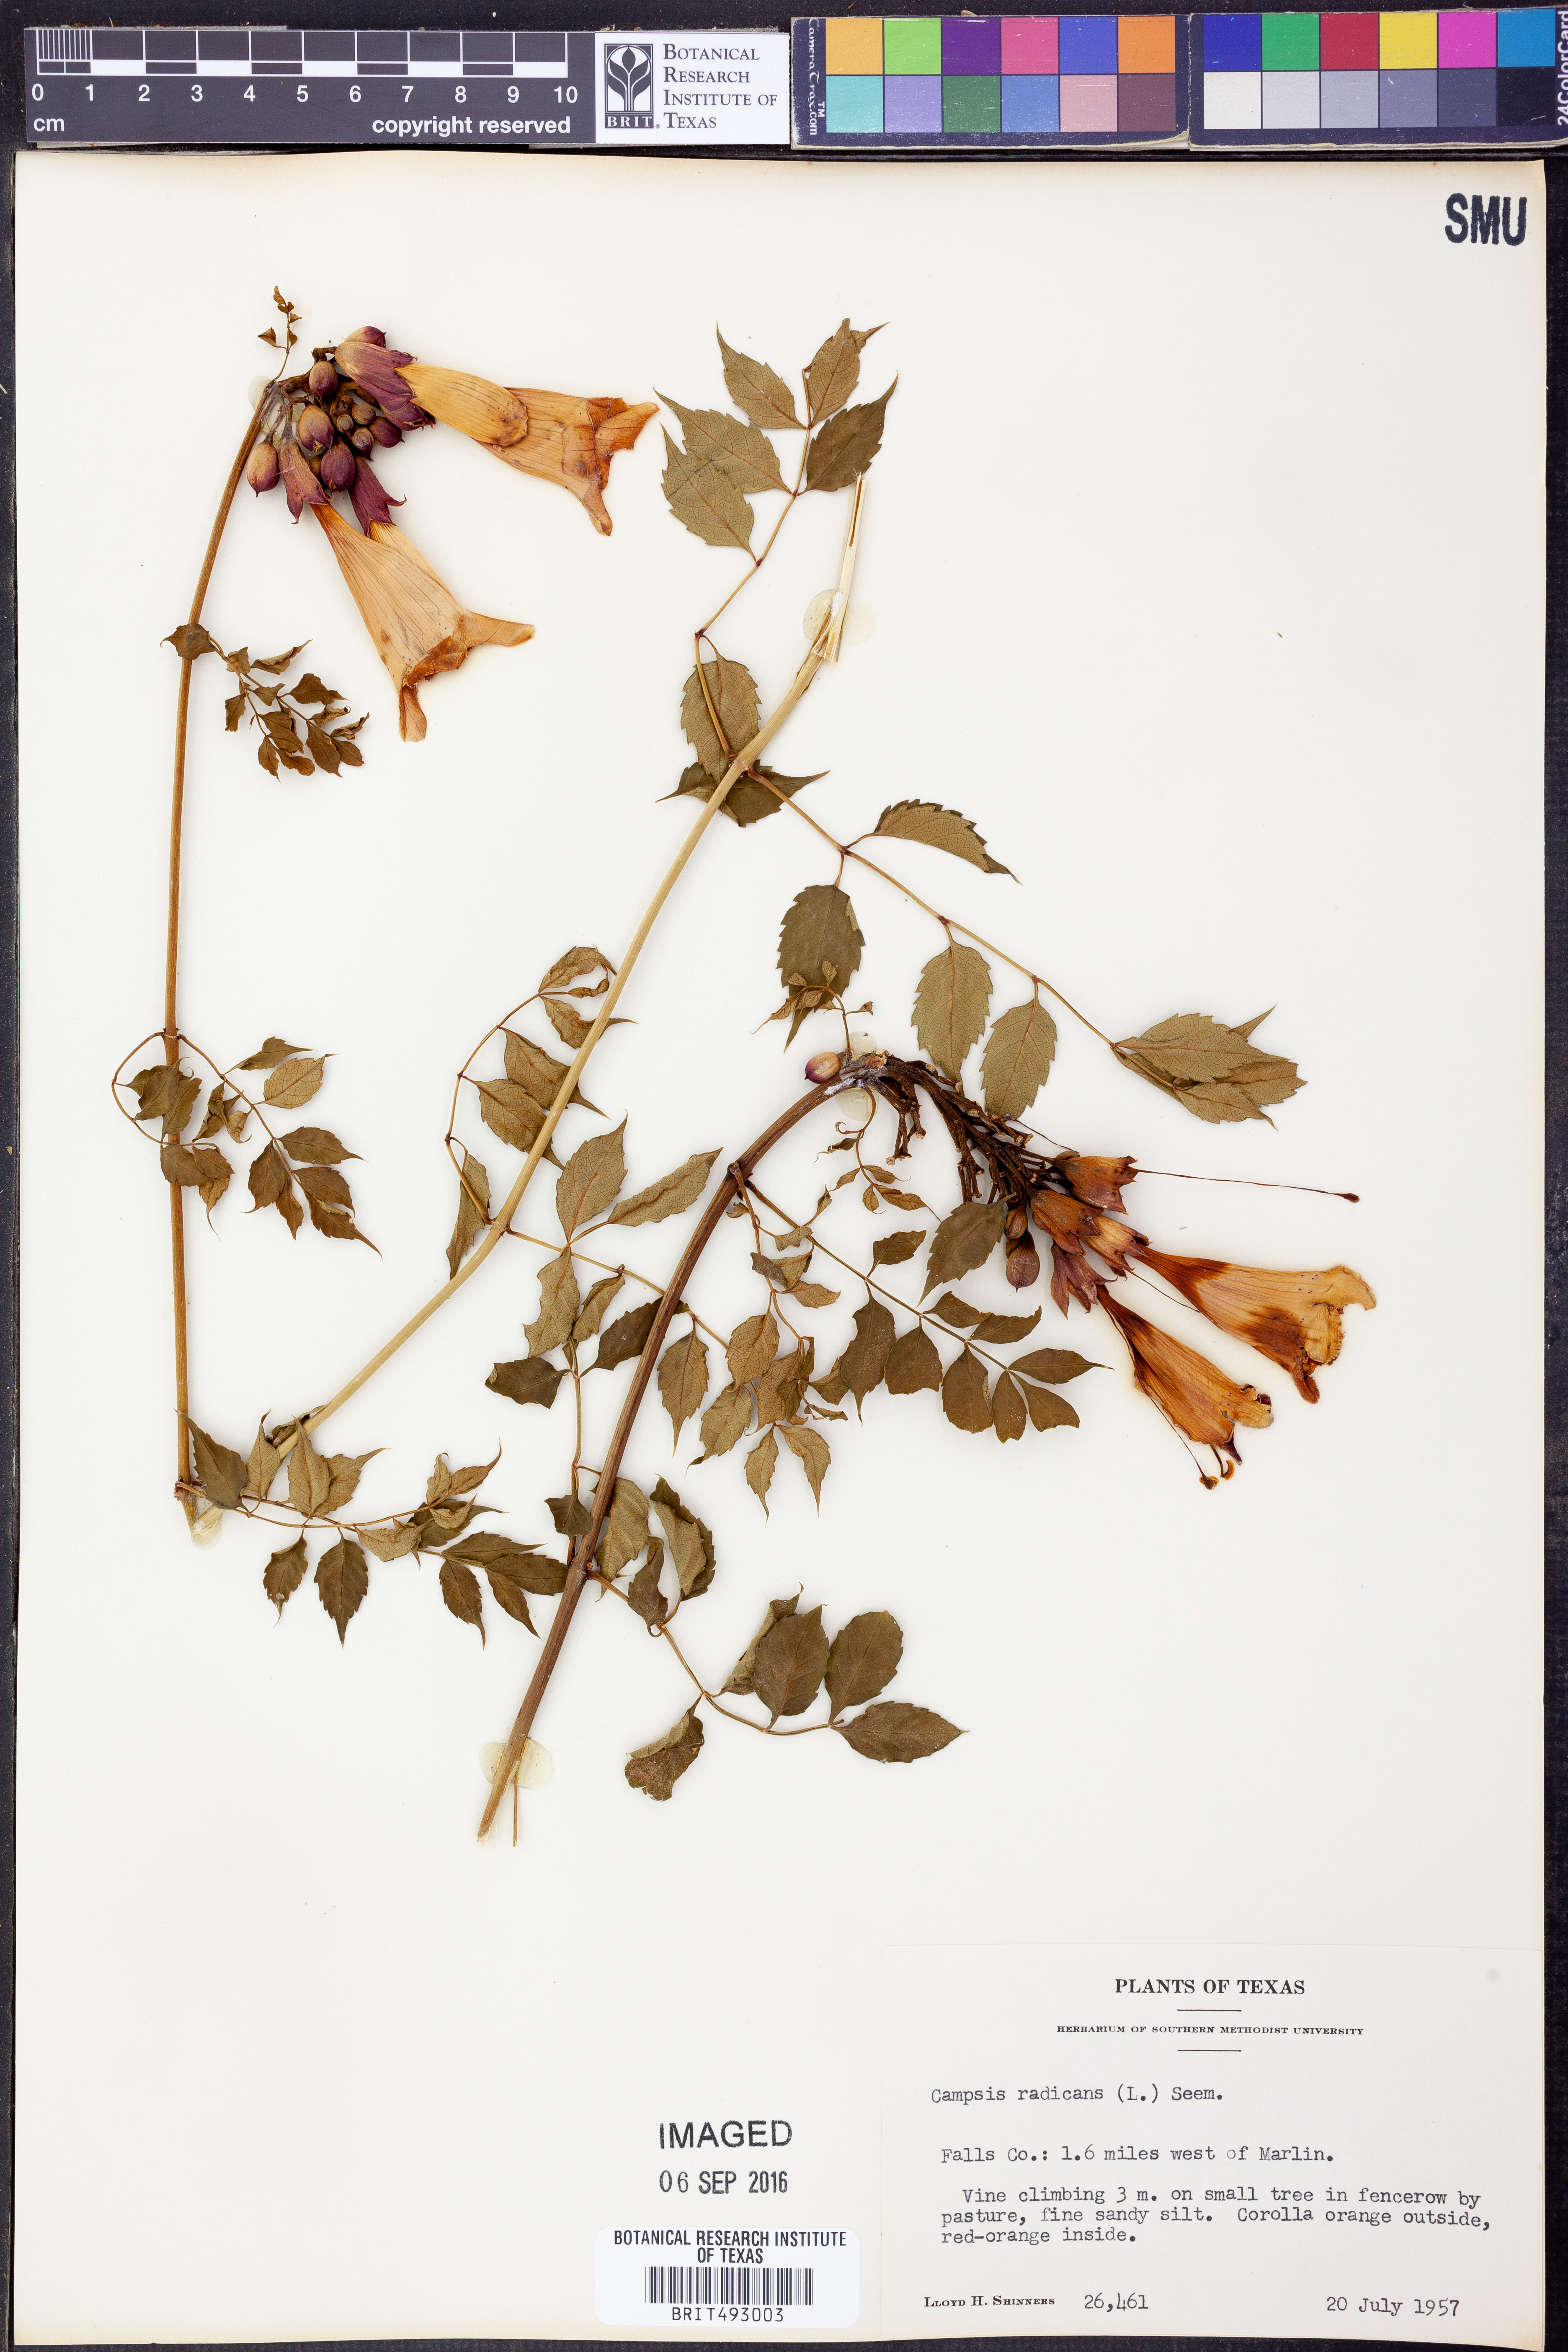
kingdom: Plantae
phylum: Tracheophyta
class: Magnoliopsida
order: Lamiales
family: Bignoniaceae
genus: Campsis
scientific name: Campsis radicans
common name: Trumpet-creeper
